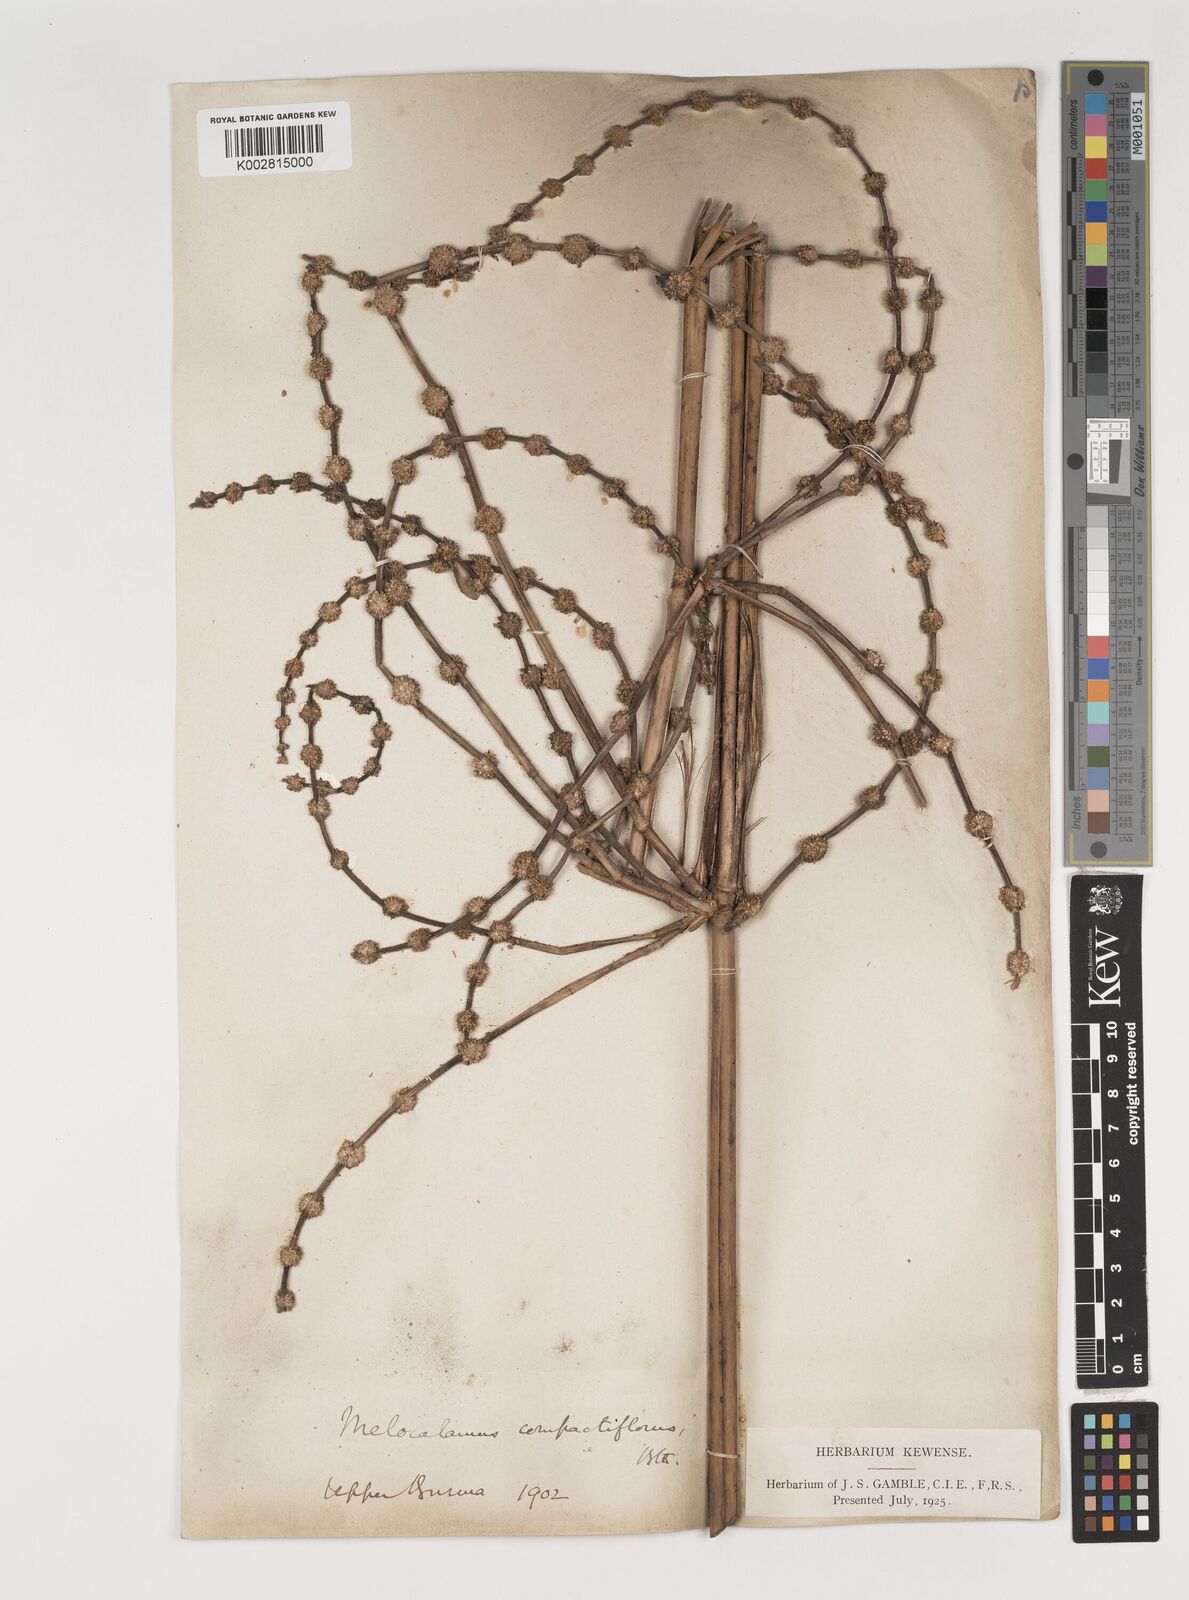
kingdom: Plantae
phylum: Tracheophyta
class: Liliopsida
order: Poales
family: Poaceae
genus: Melocalamus
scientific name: Melocalamus compactiflorus
